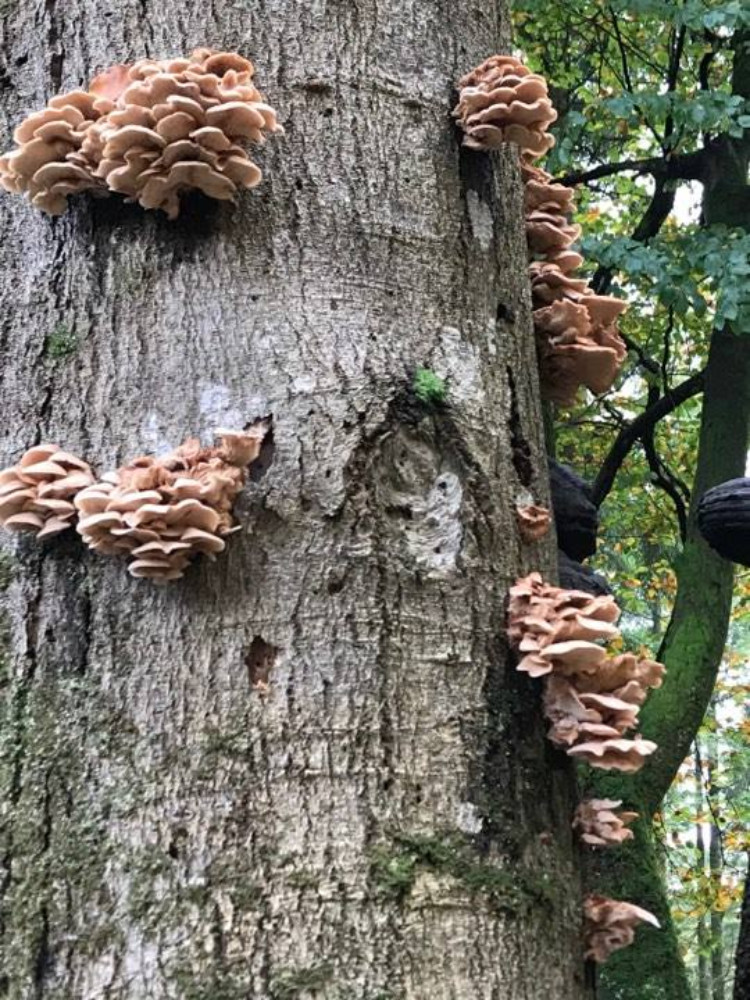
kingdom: Fungi
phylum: Basidiomycota
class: Agaricomycetes
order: Russulales
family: Auriscalpiaceae
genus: Lentinellus
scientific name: Lentinellus ursinus
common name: børstehåret savbladhat
